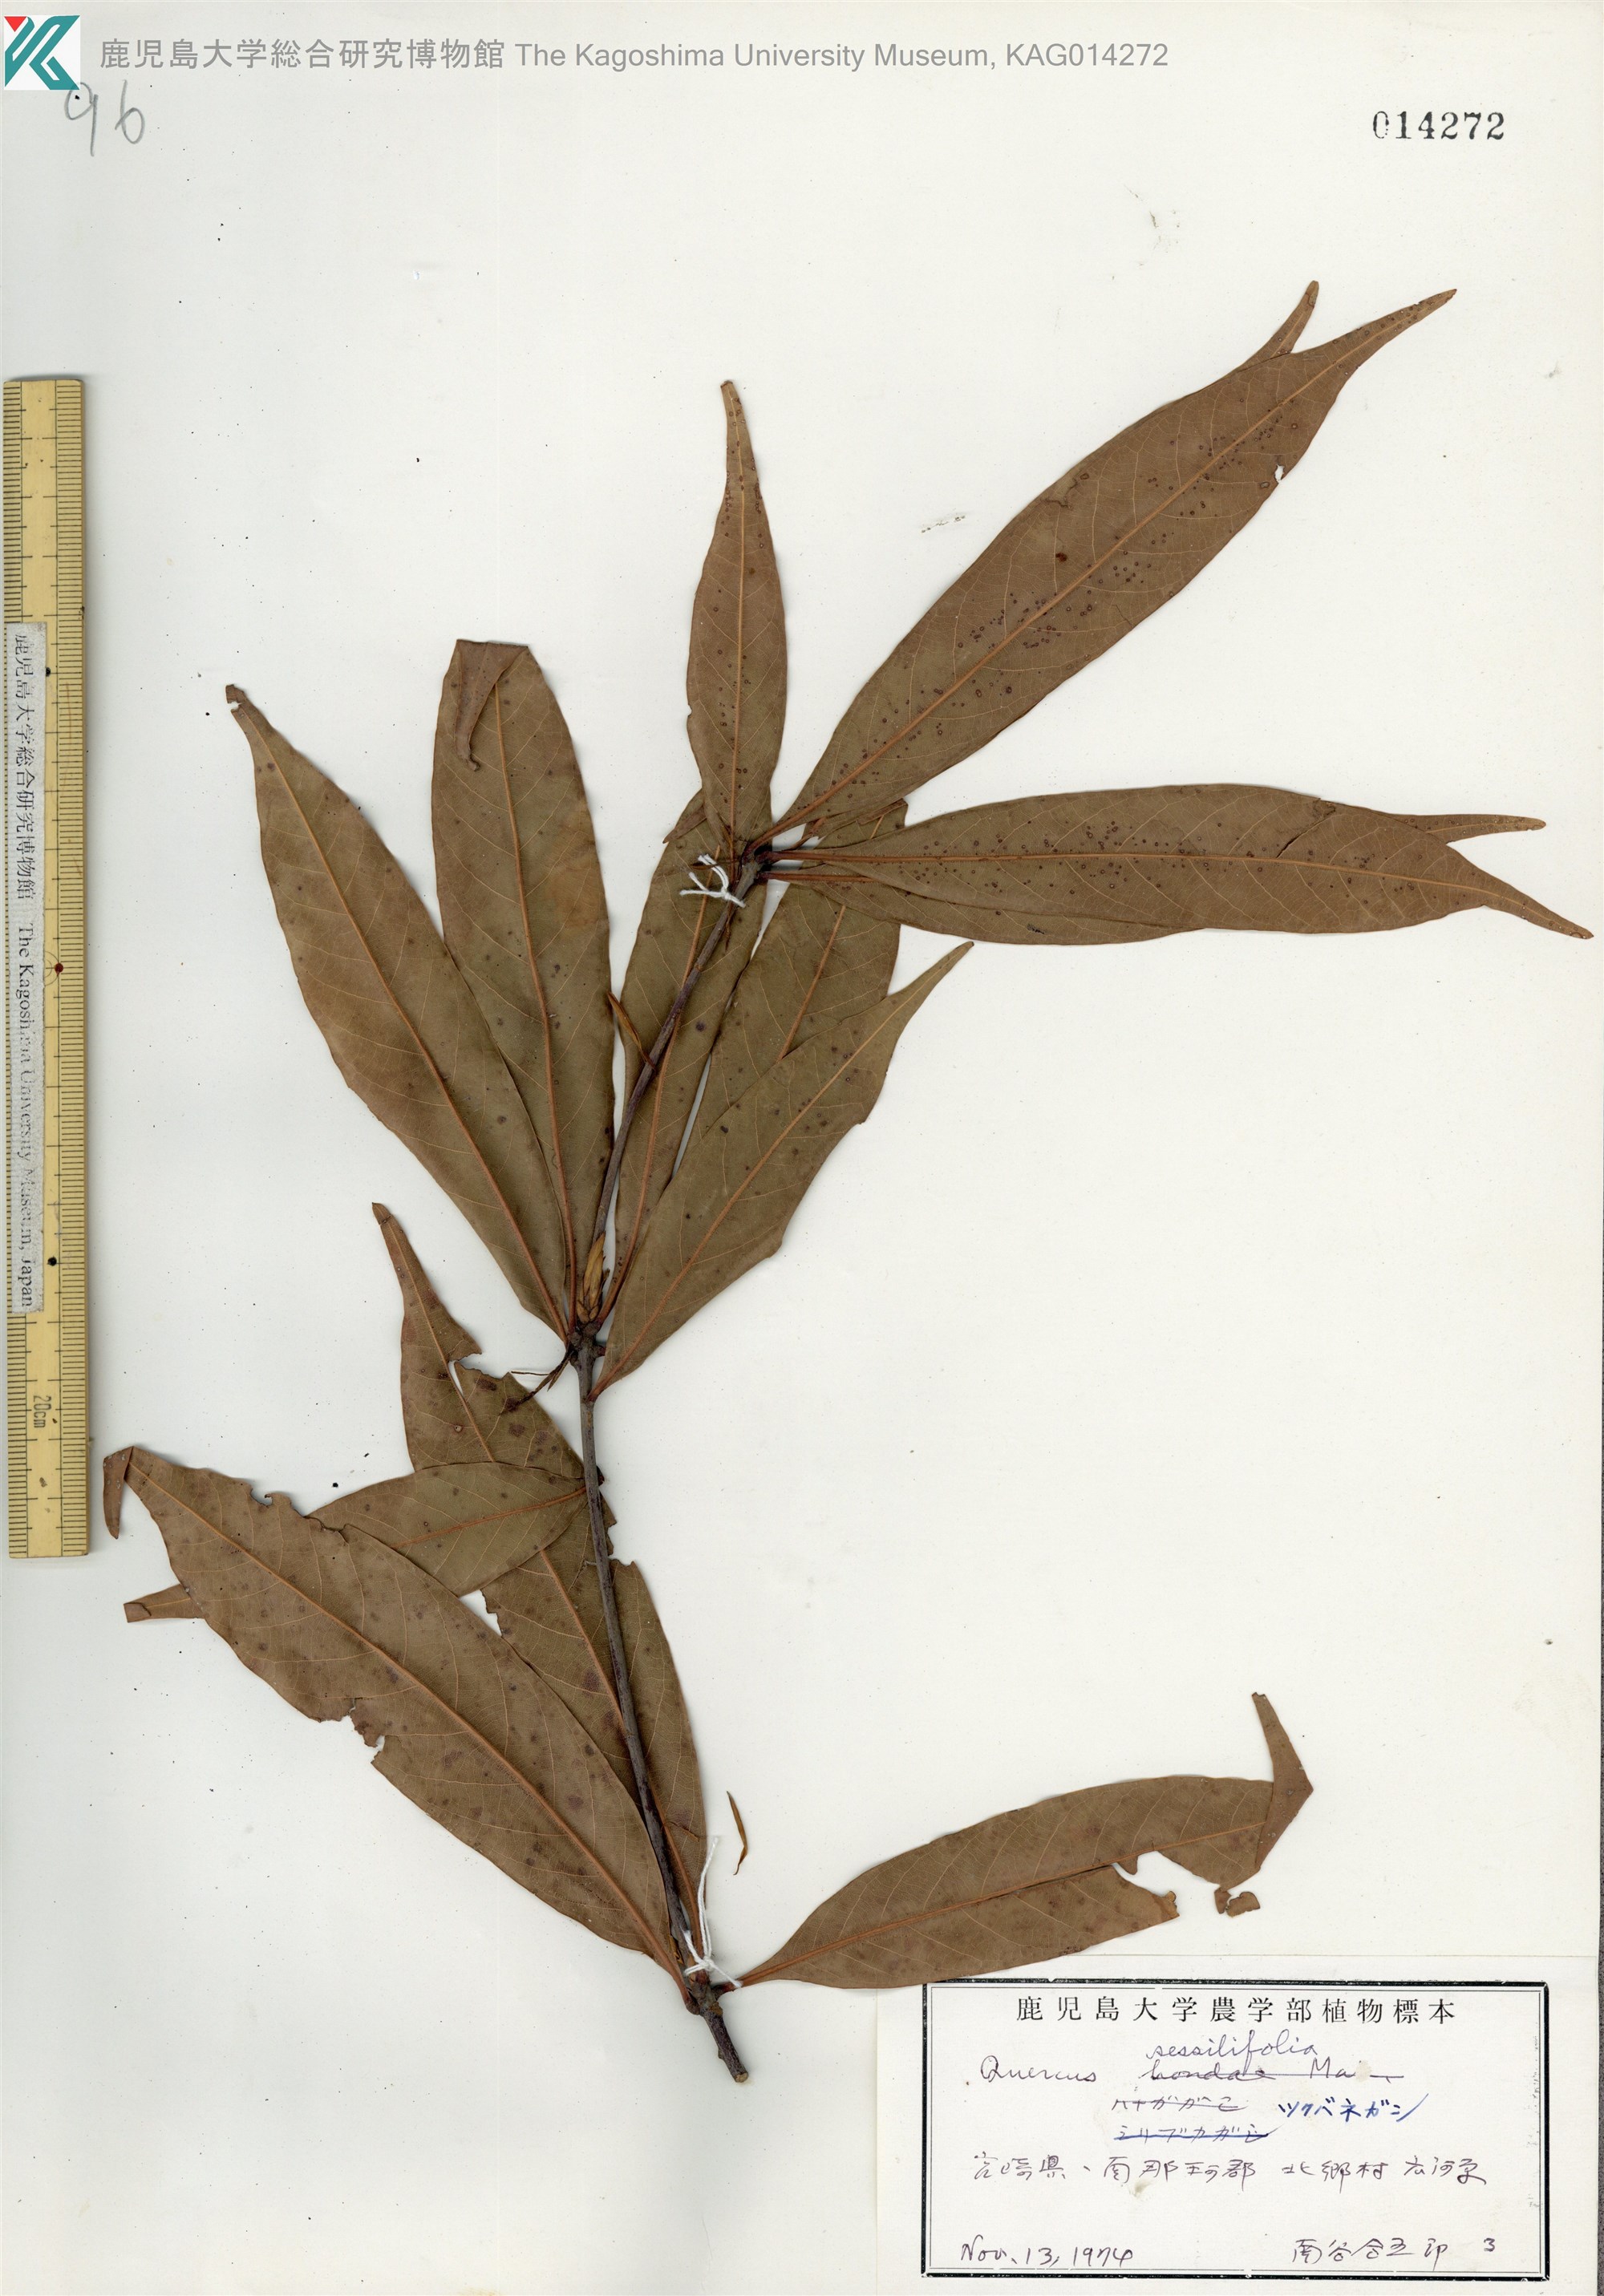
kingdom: Plantae
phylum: Tracheophyta
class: Magnoliopsida
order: Fagales
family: Fagaceae
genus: Quercus
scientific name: Quercus sessilifolia
